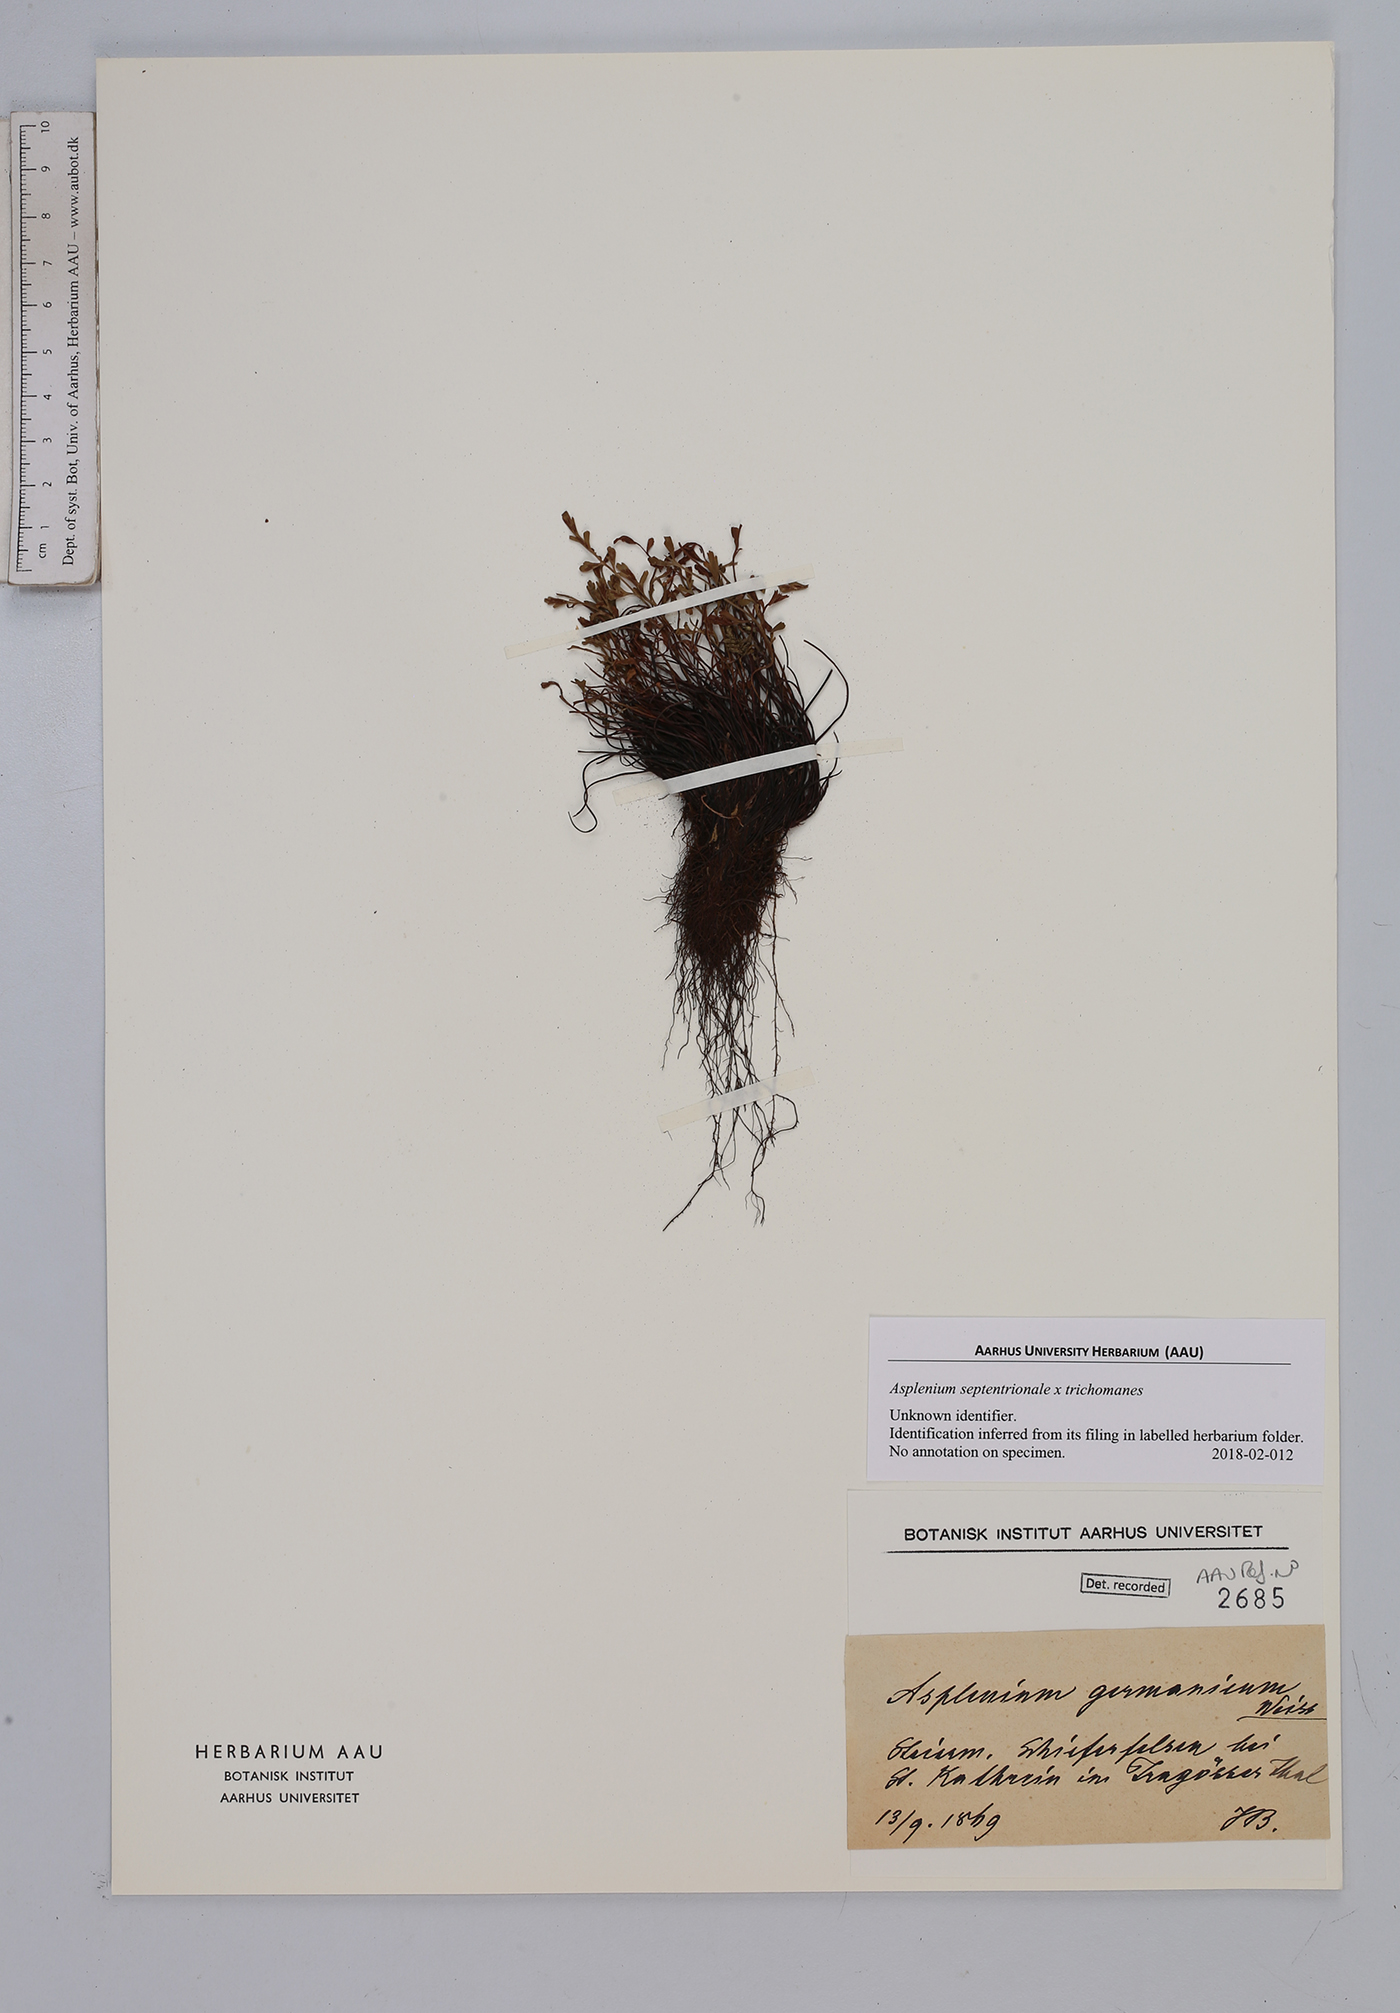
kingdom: Plantae
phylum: Tracheophyta
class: Polypodiopsida
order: Polypodiales
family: Aspleniaceae
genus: Asplenium
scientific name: Asplenium
